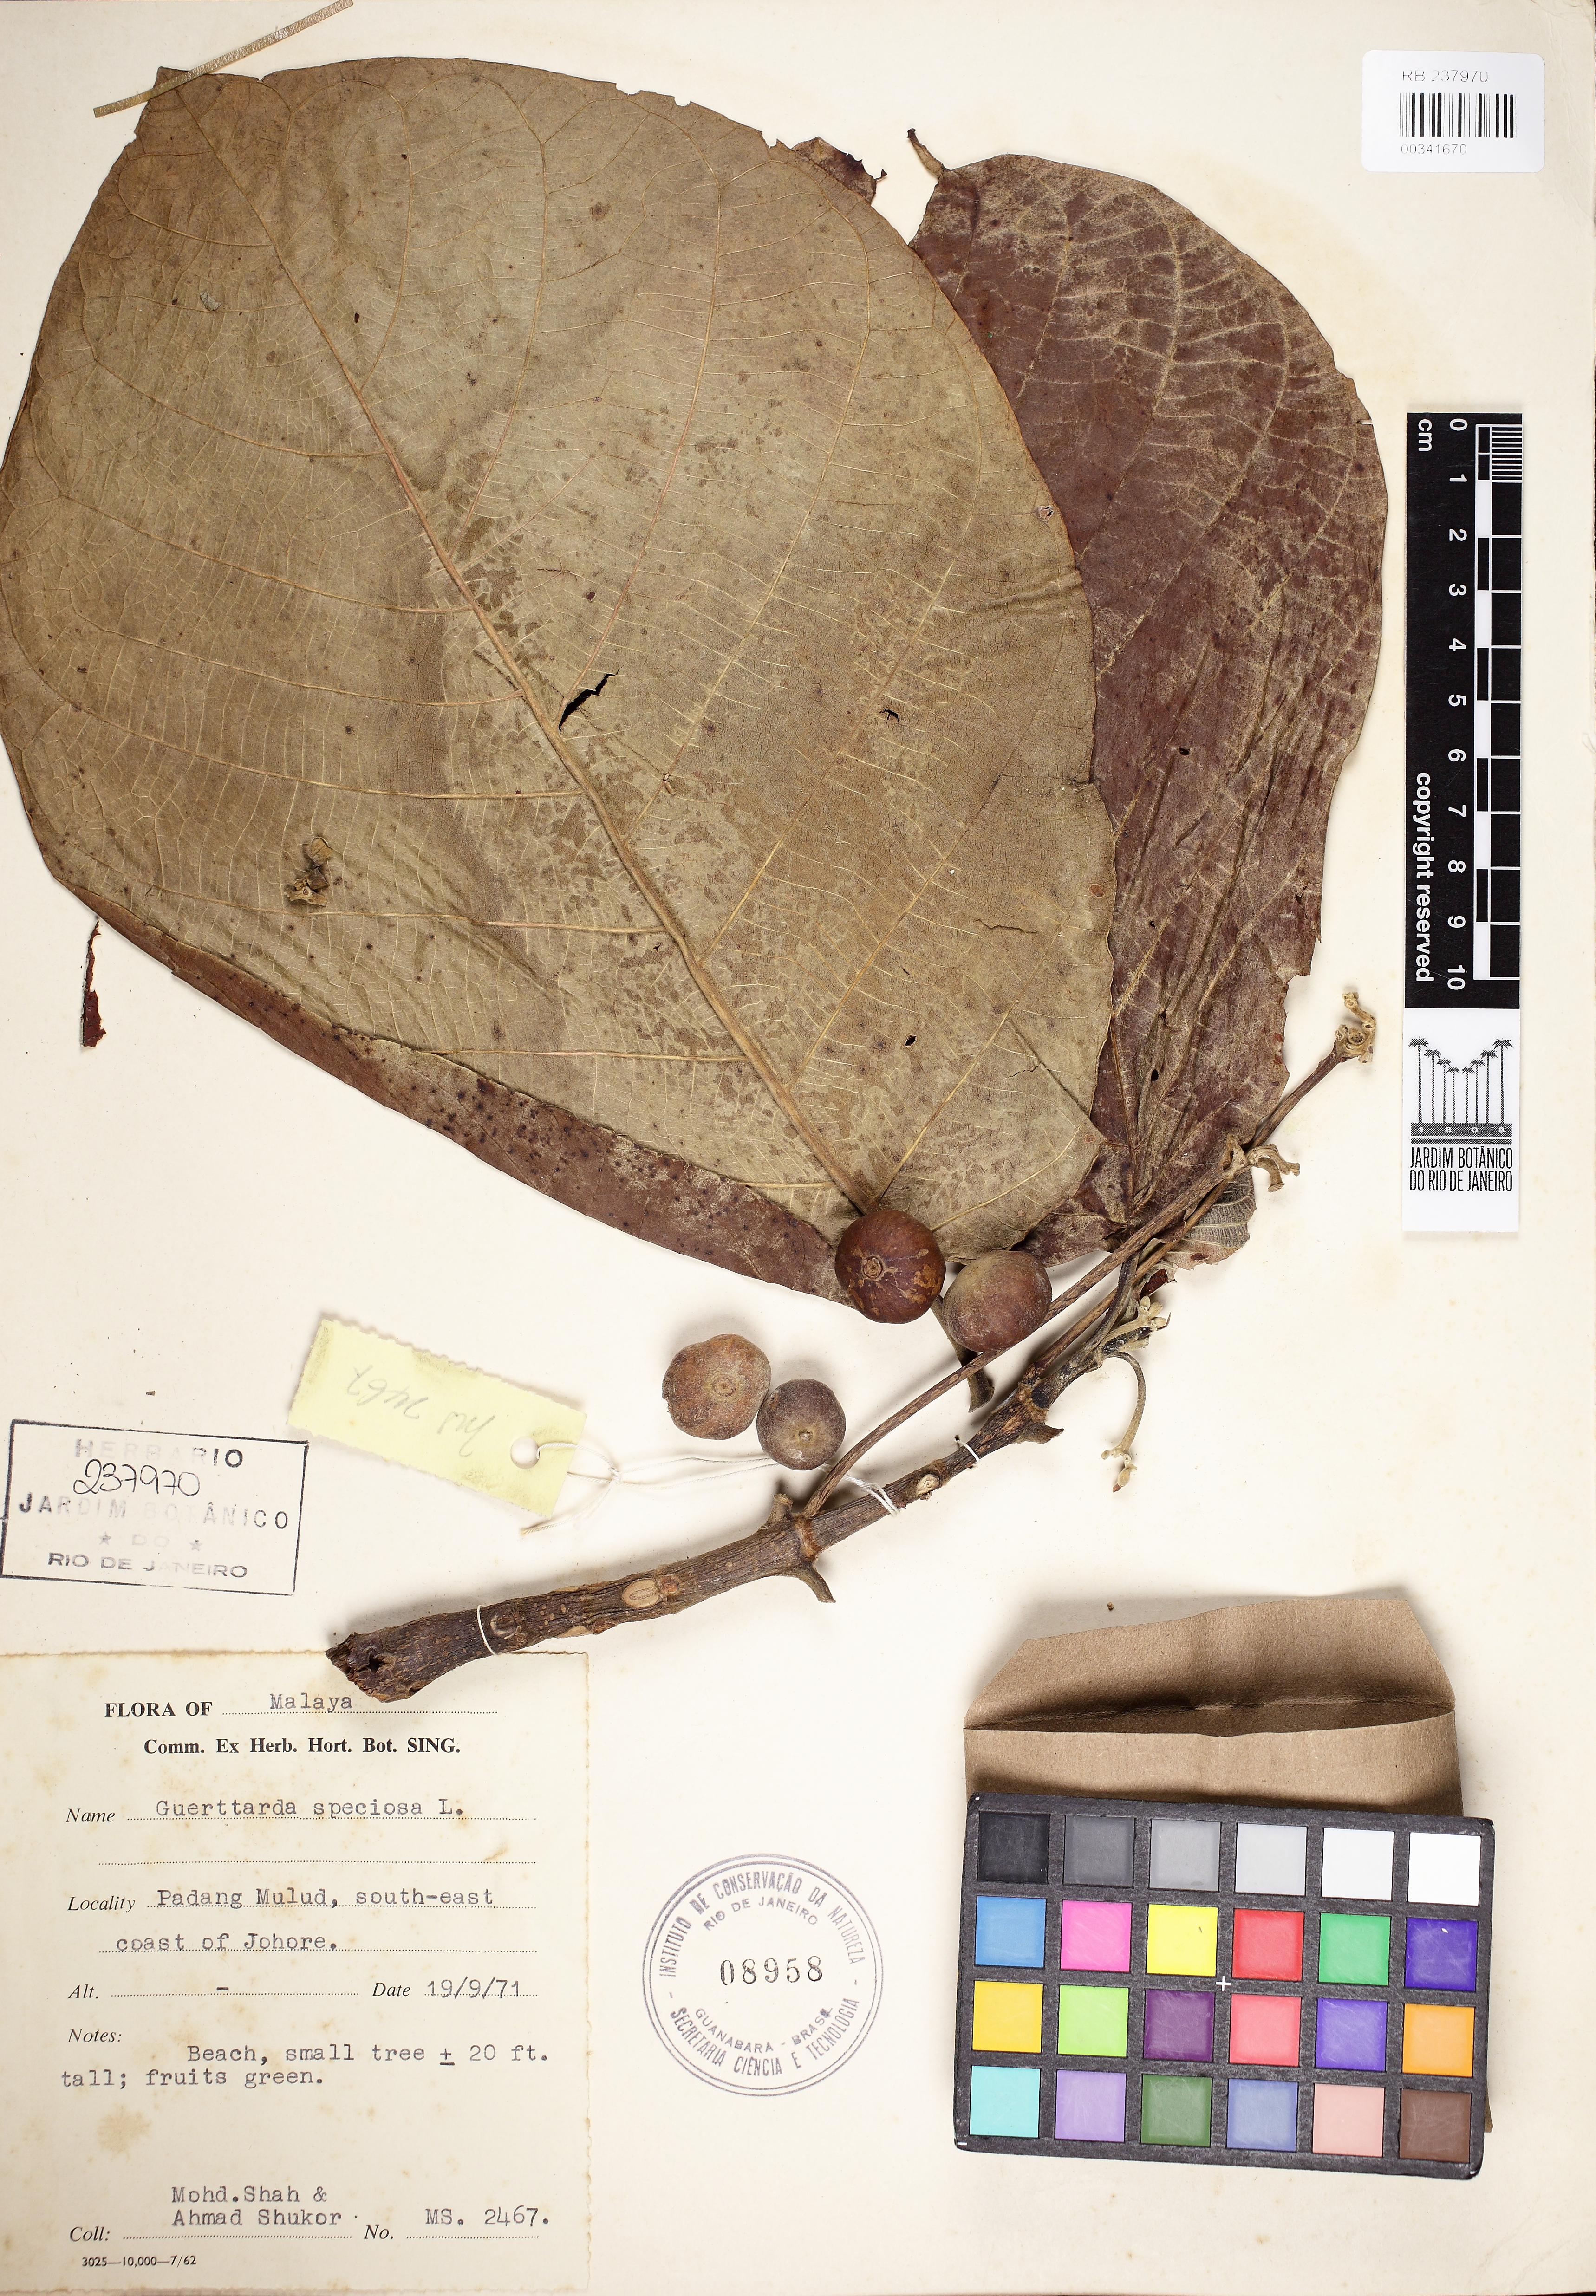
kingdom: Plantae
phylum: Tracheophyta
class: Magnoliopsida
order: Gentianales
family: Rubiaceae
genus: Guettarda
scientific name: Guettarda speciosa
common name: Sea randa
